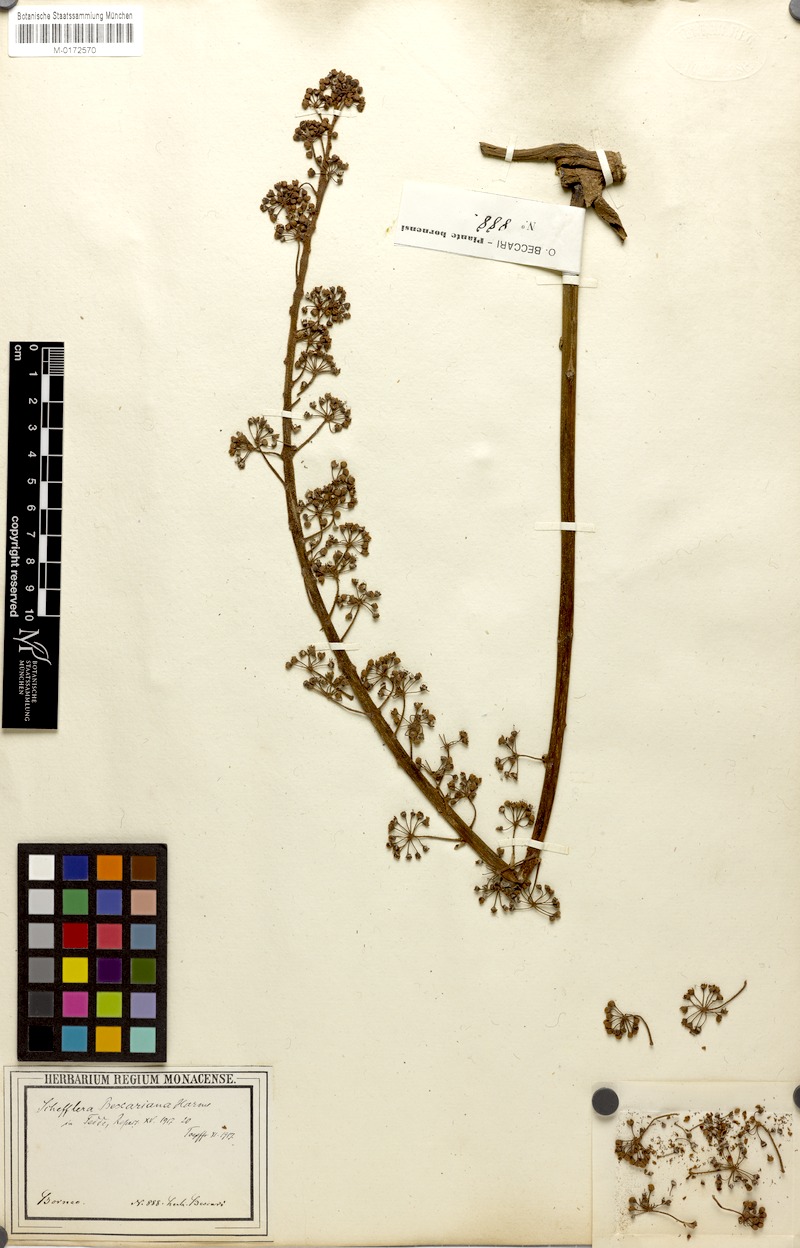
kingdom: Plantae
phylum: Tracheophyta
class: Magnoliopsida
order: Apiales
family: Araliaceae
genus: Heptapleurum
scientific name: Heptapleurum beccarianum
